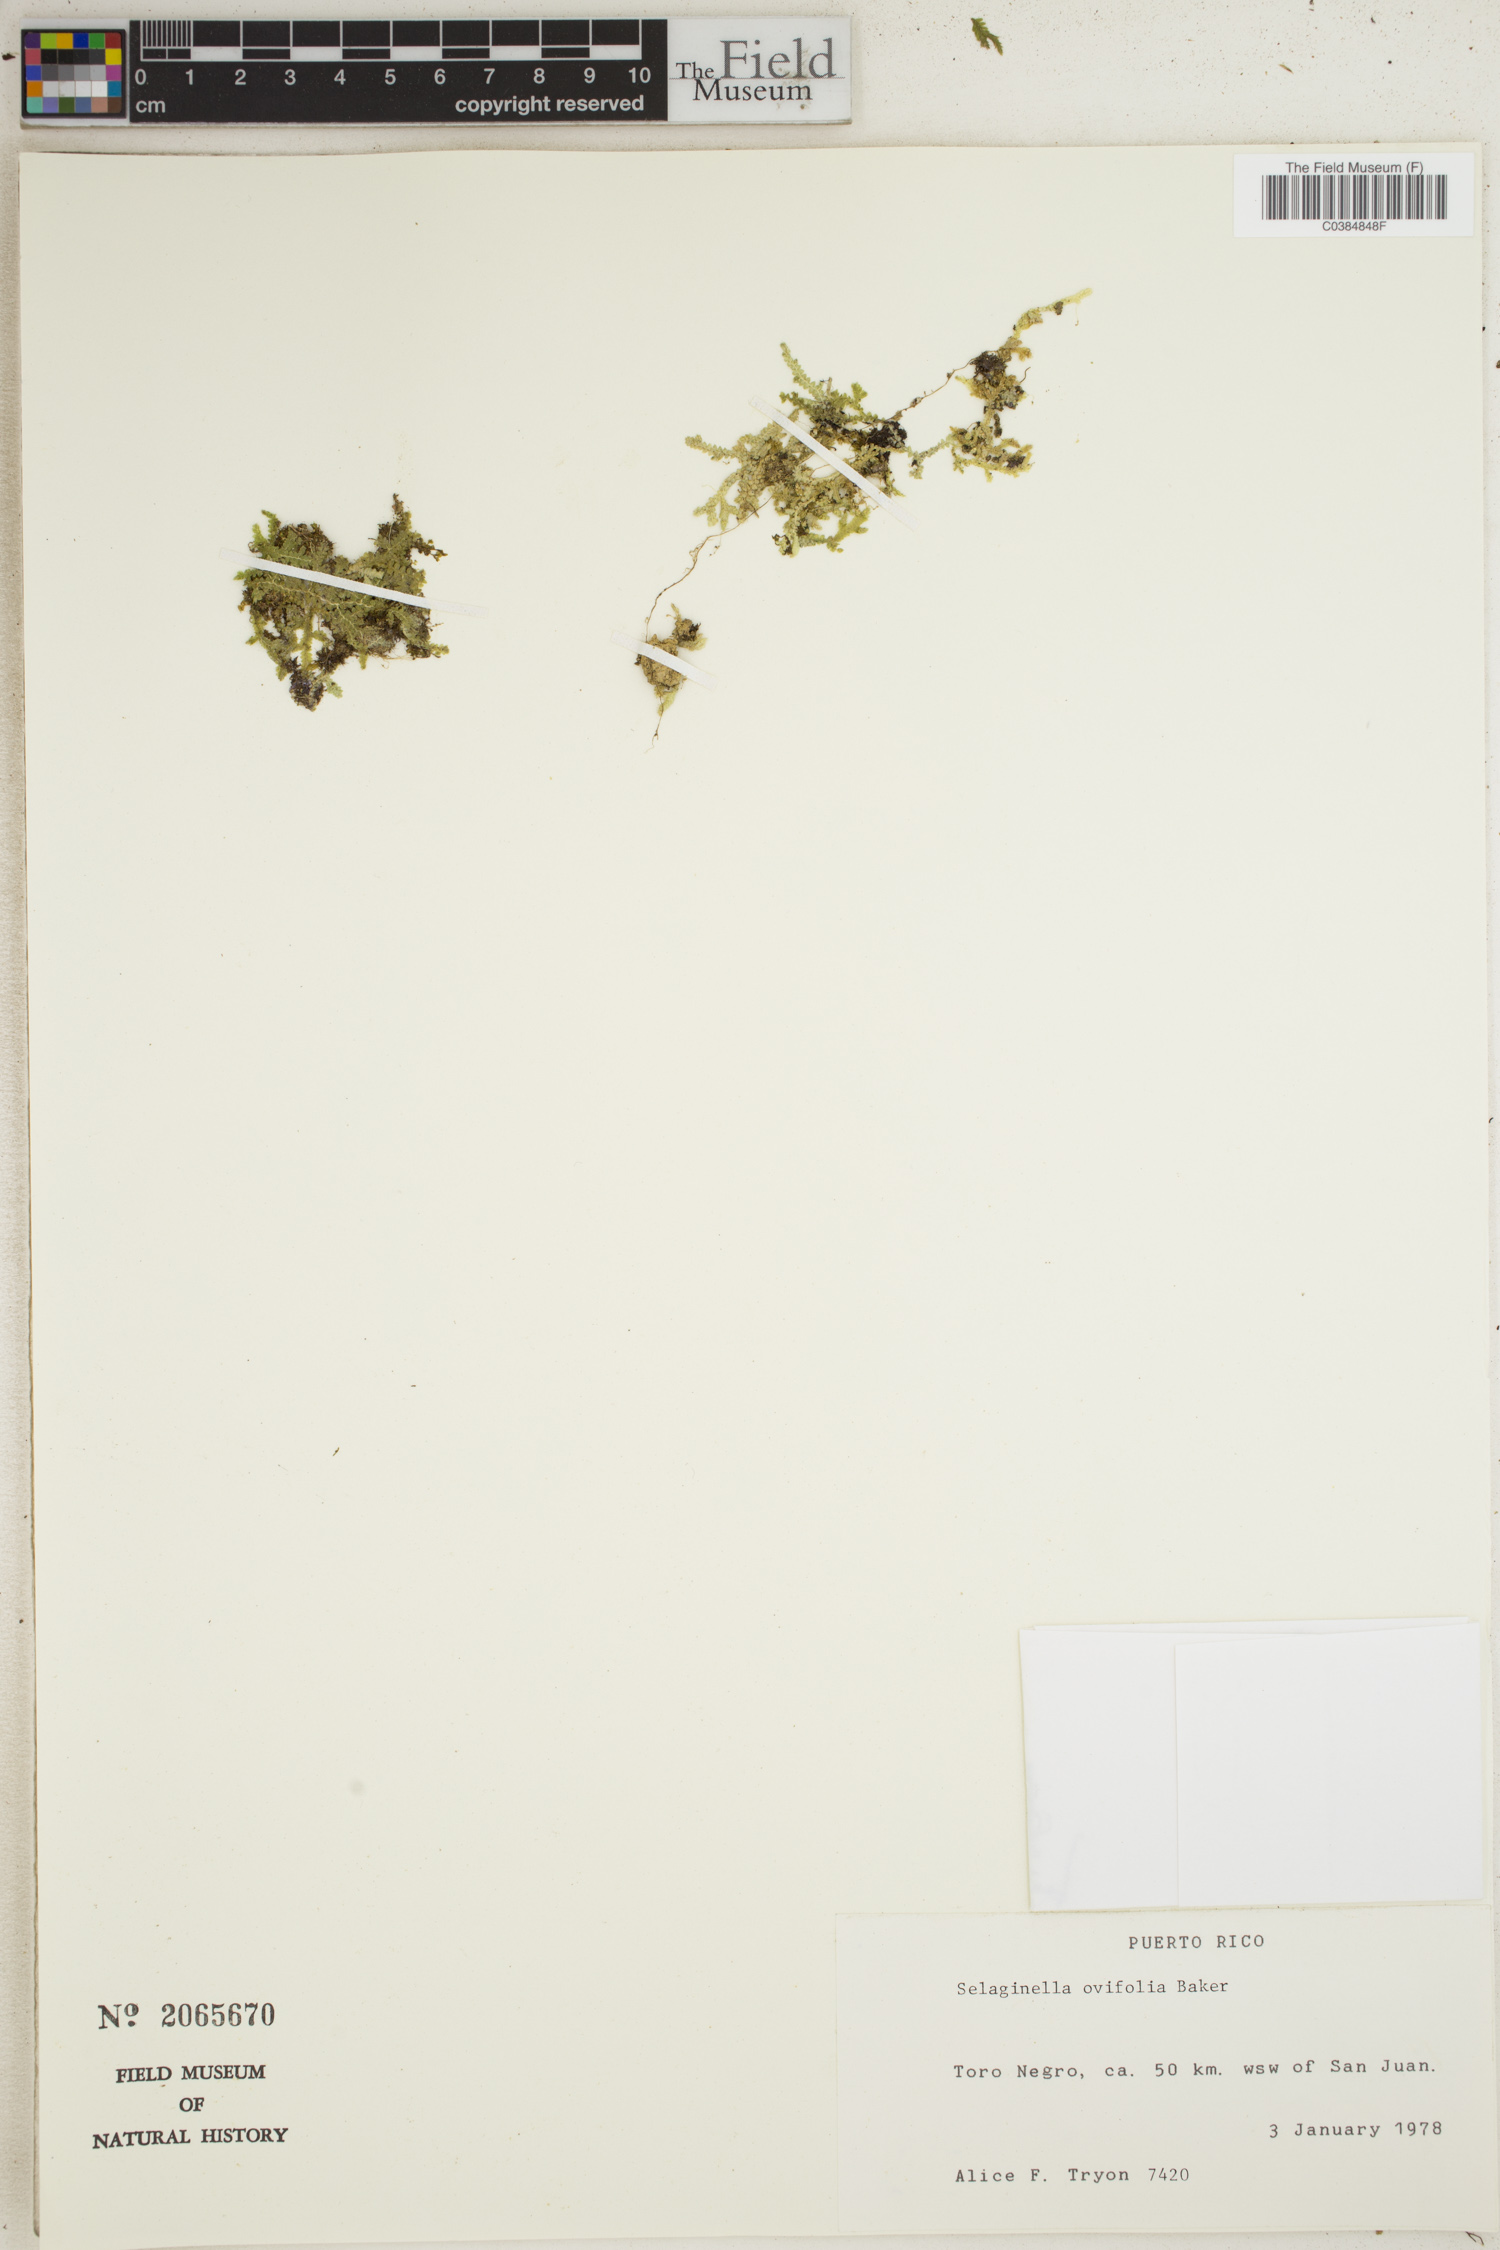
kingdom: Plantae
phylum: Tracheophyta
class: Lycopodiopsida
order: Selaginellales
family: Selaginellaceae
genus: Selaginella
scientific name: Selaginella ovifolia
